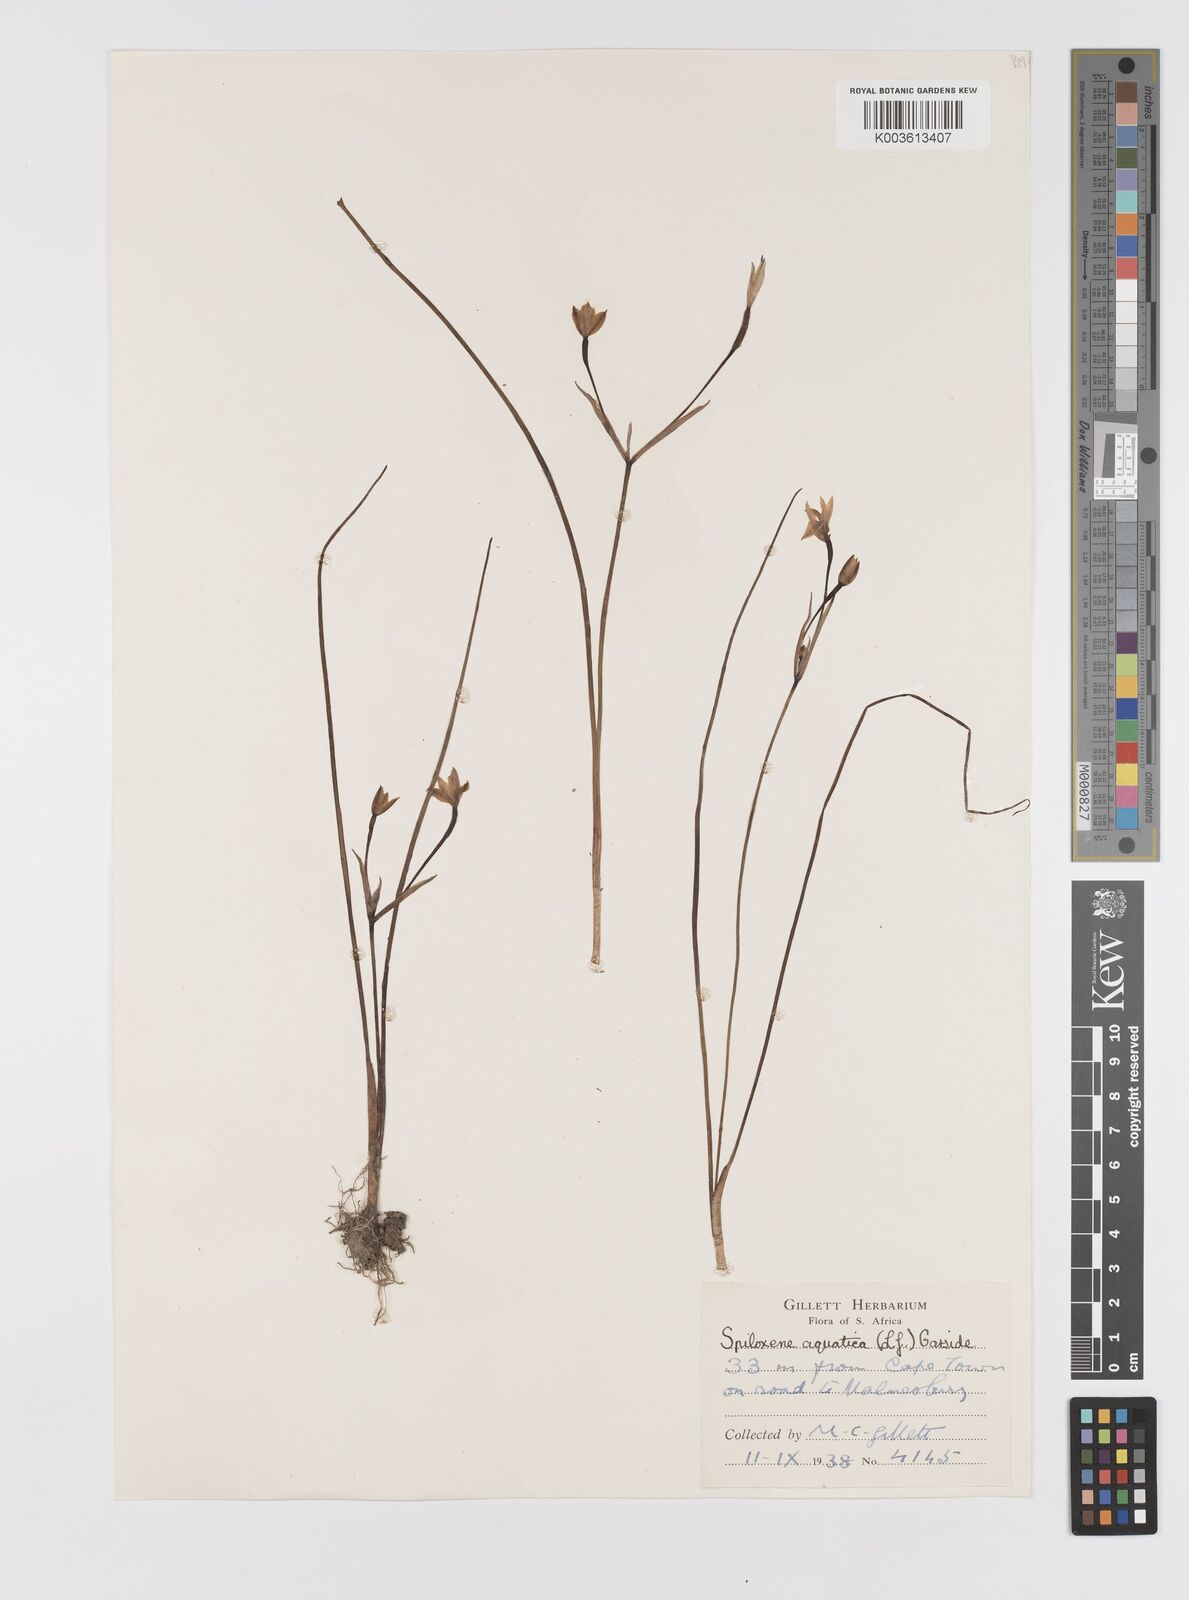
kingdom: Plantae
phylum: Tracheophyta
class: Liliopsida
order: Asparagales
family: Hypoxidaceae
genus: Pauridia
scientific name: Pauridia aquatica
